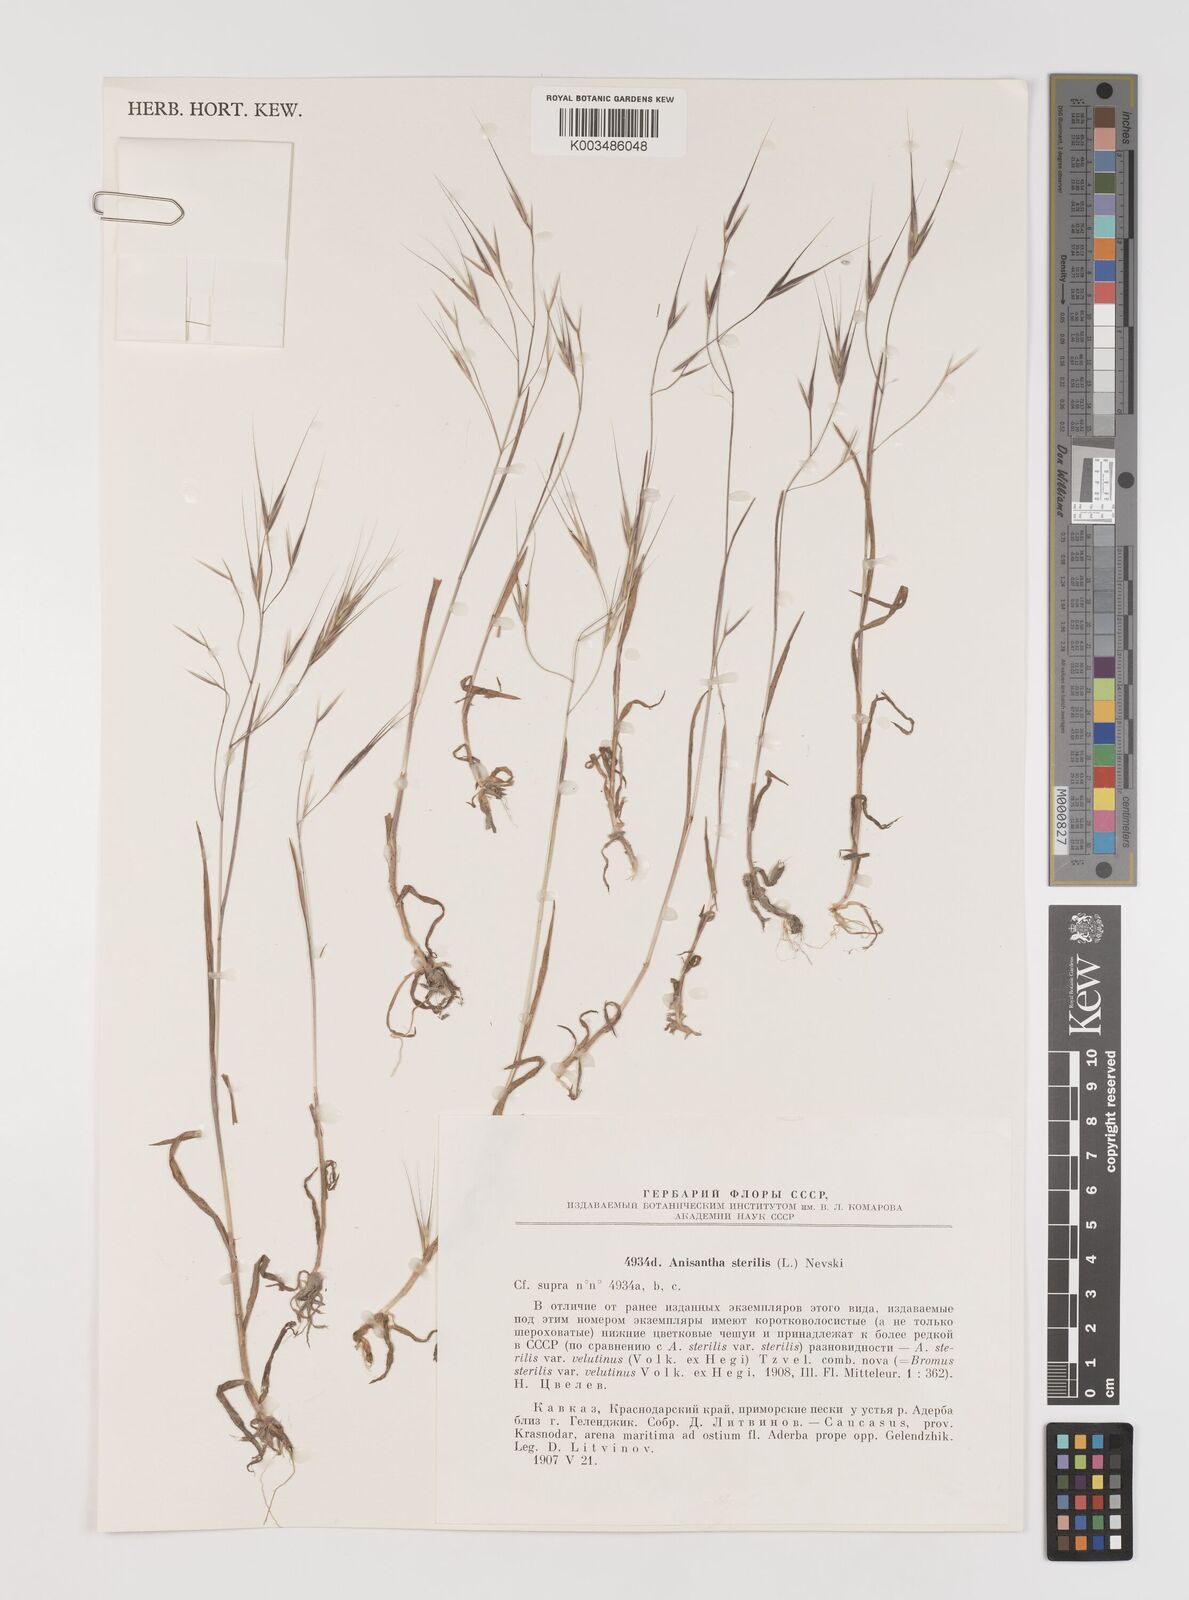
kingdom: Plantae
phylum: Tracheophyta
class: Liliopsida
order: Poales
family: Poaceae
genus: Bromus
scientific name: Bromus sterilis
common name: Poverty brome
